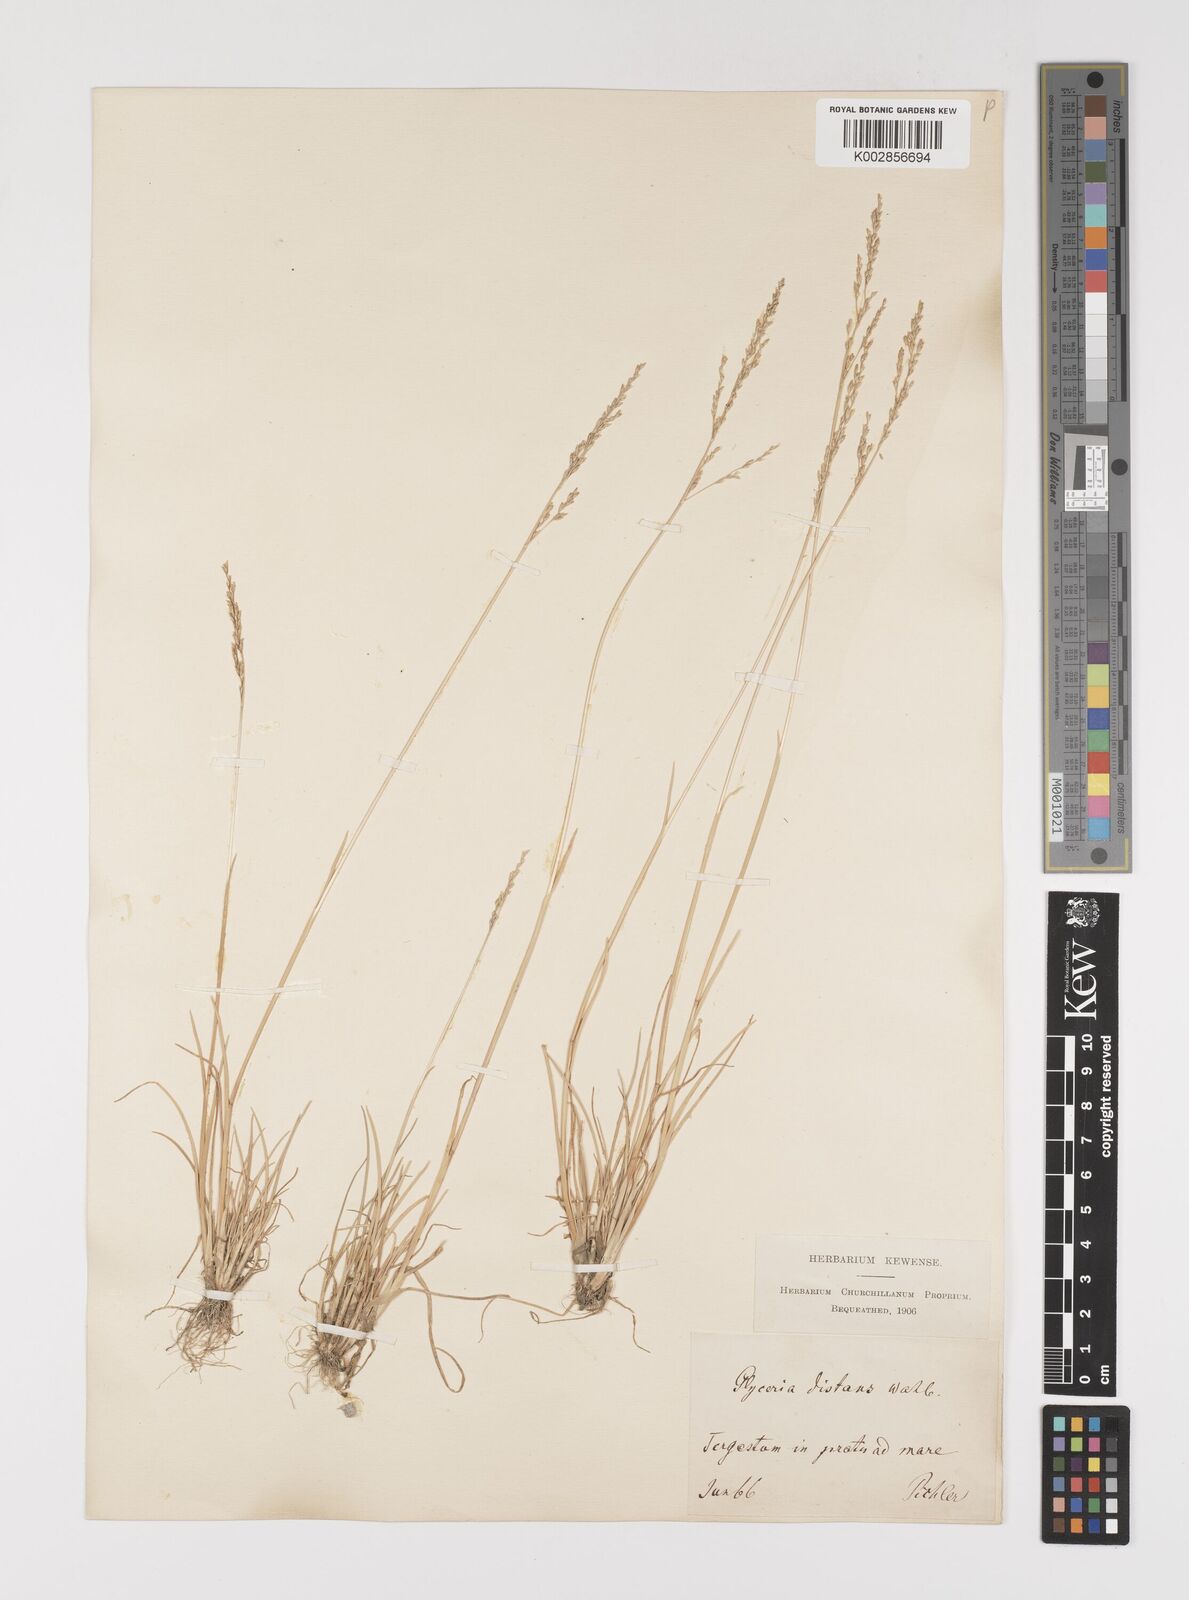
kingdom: Plantae
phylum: Tracheophyta
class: Liliopsida
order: Poales
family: Poaceae
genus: Puccinellia
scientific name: Puccinellia distans
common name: Weeping alkaligrass
